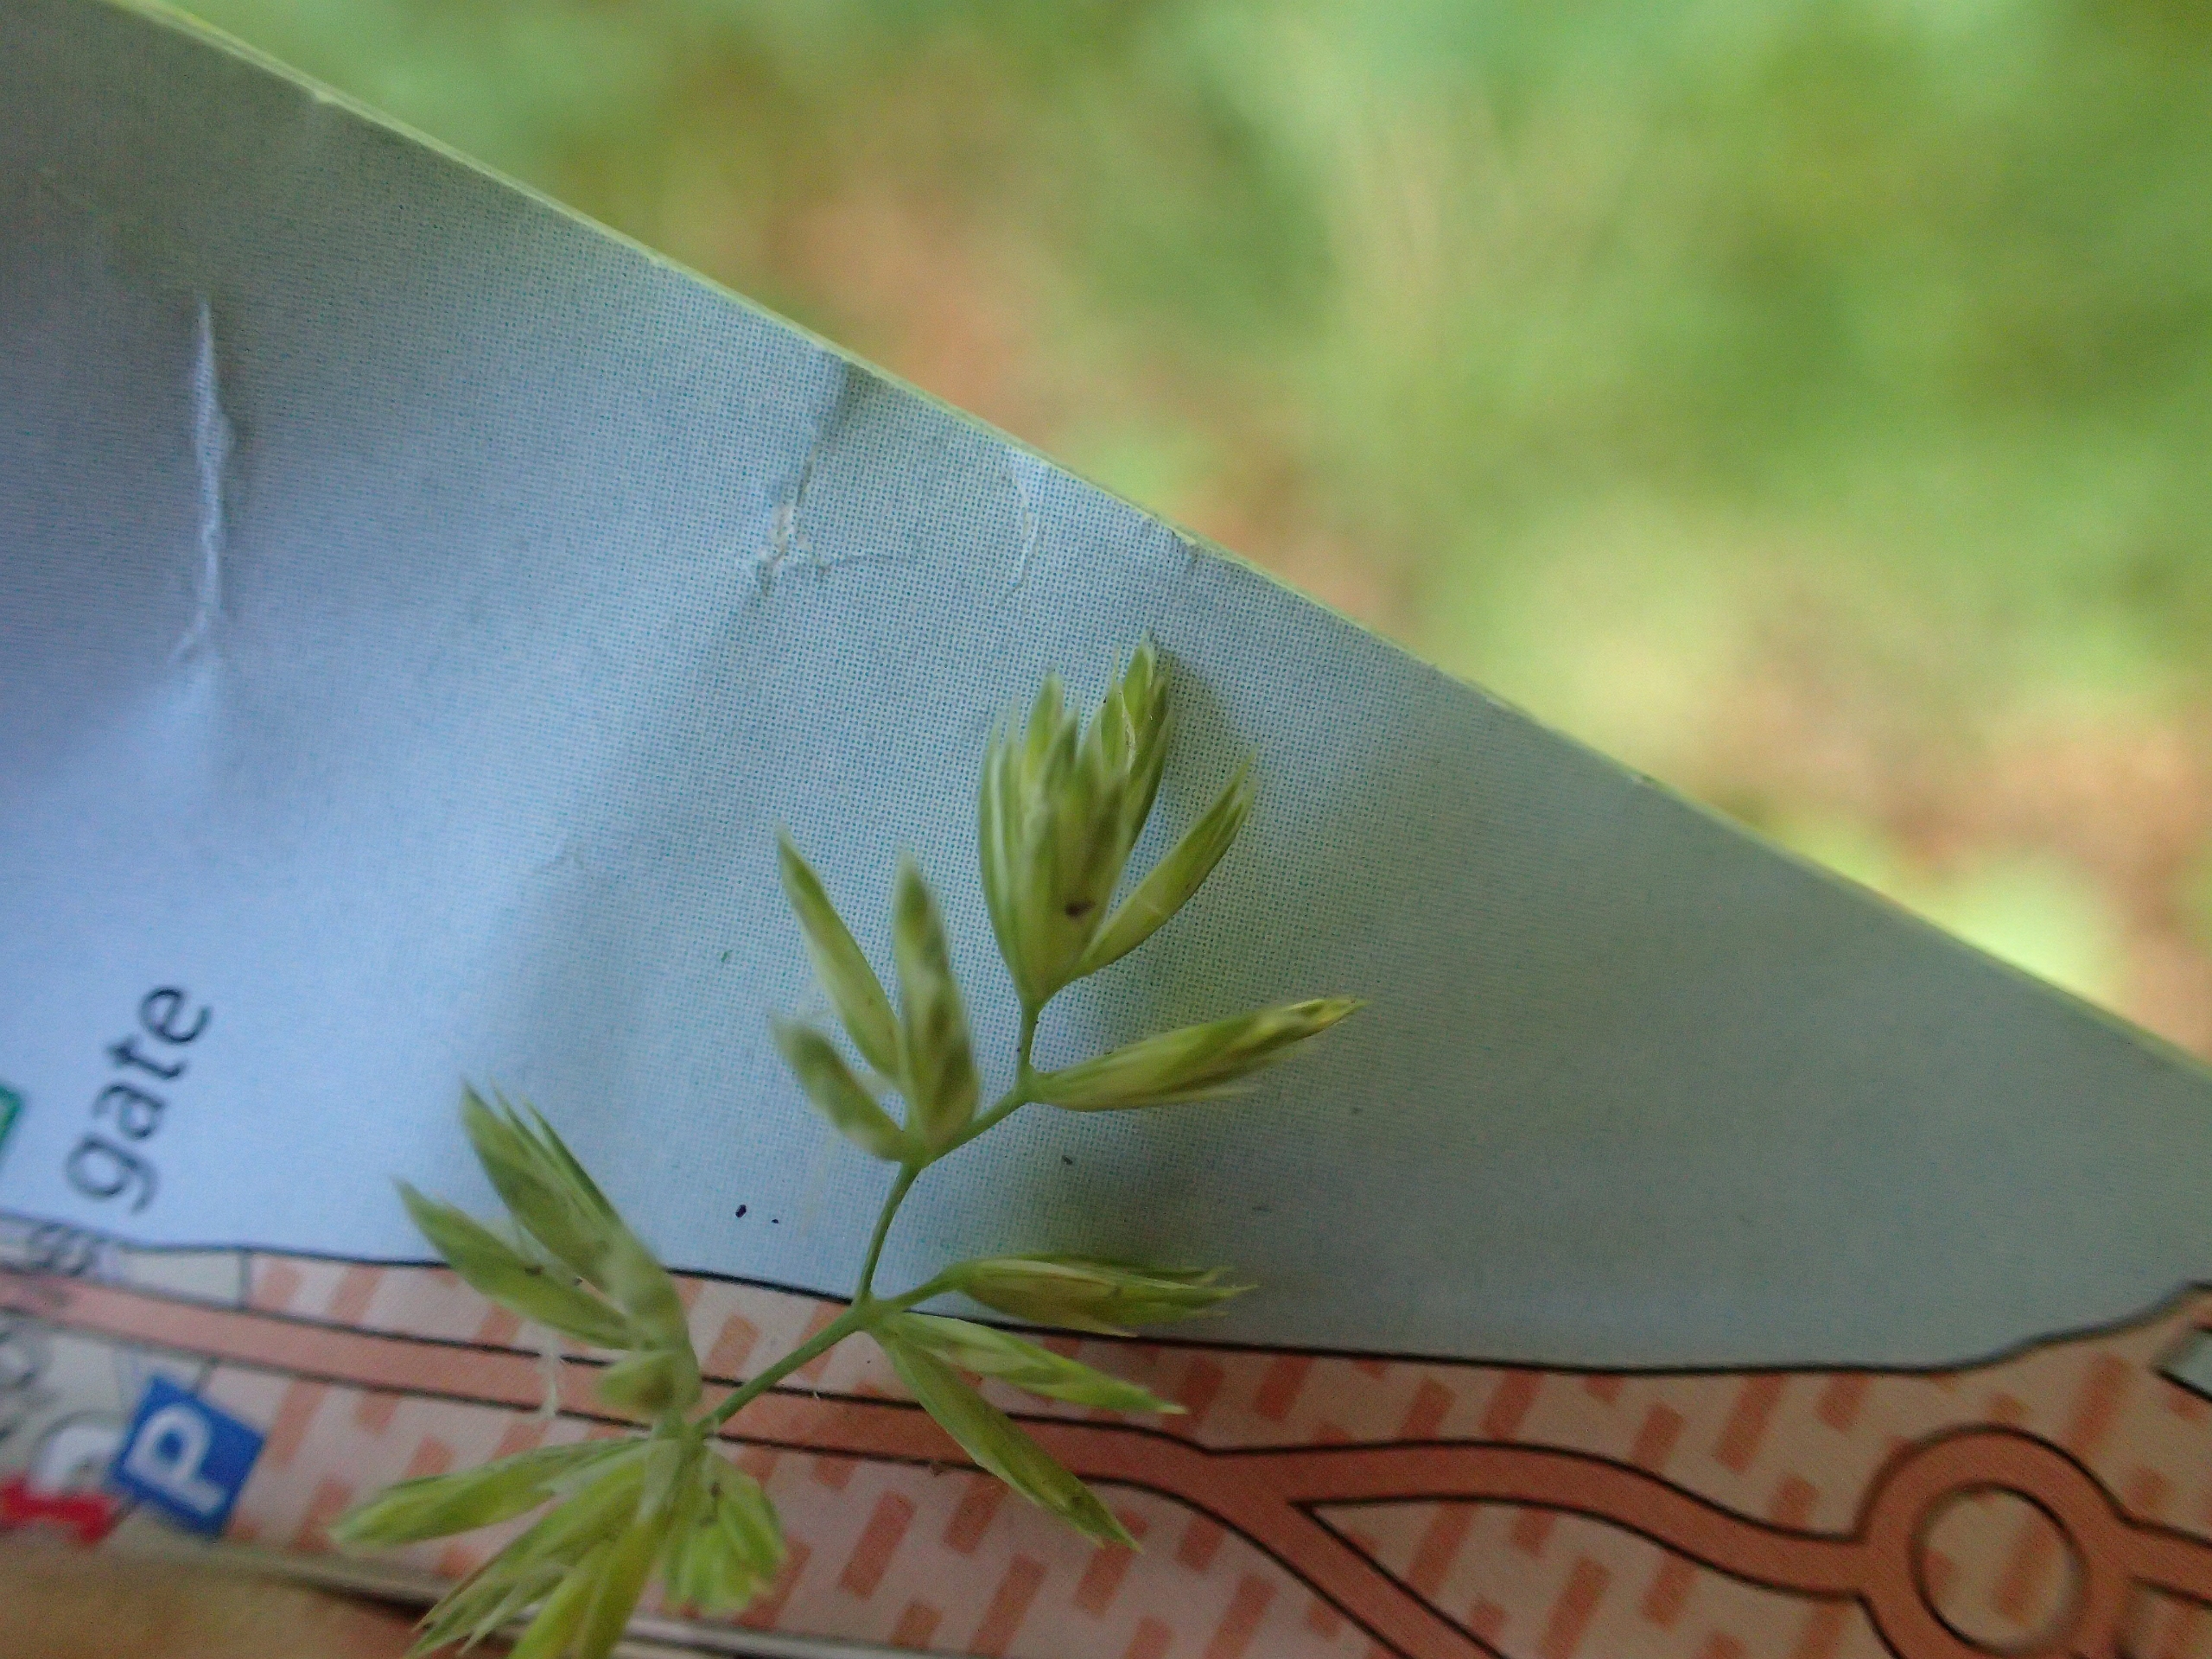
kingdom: Plantae
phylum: Tracheophyta
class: Liliopsida
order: Poales
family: Poaceae
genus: Dactylis
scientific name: Dactylis glomerata
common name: Skov-hundegræs
